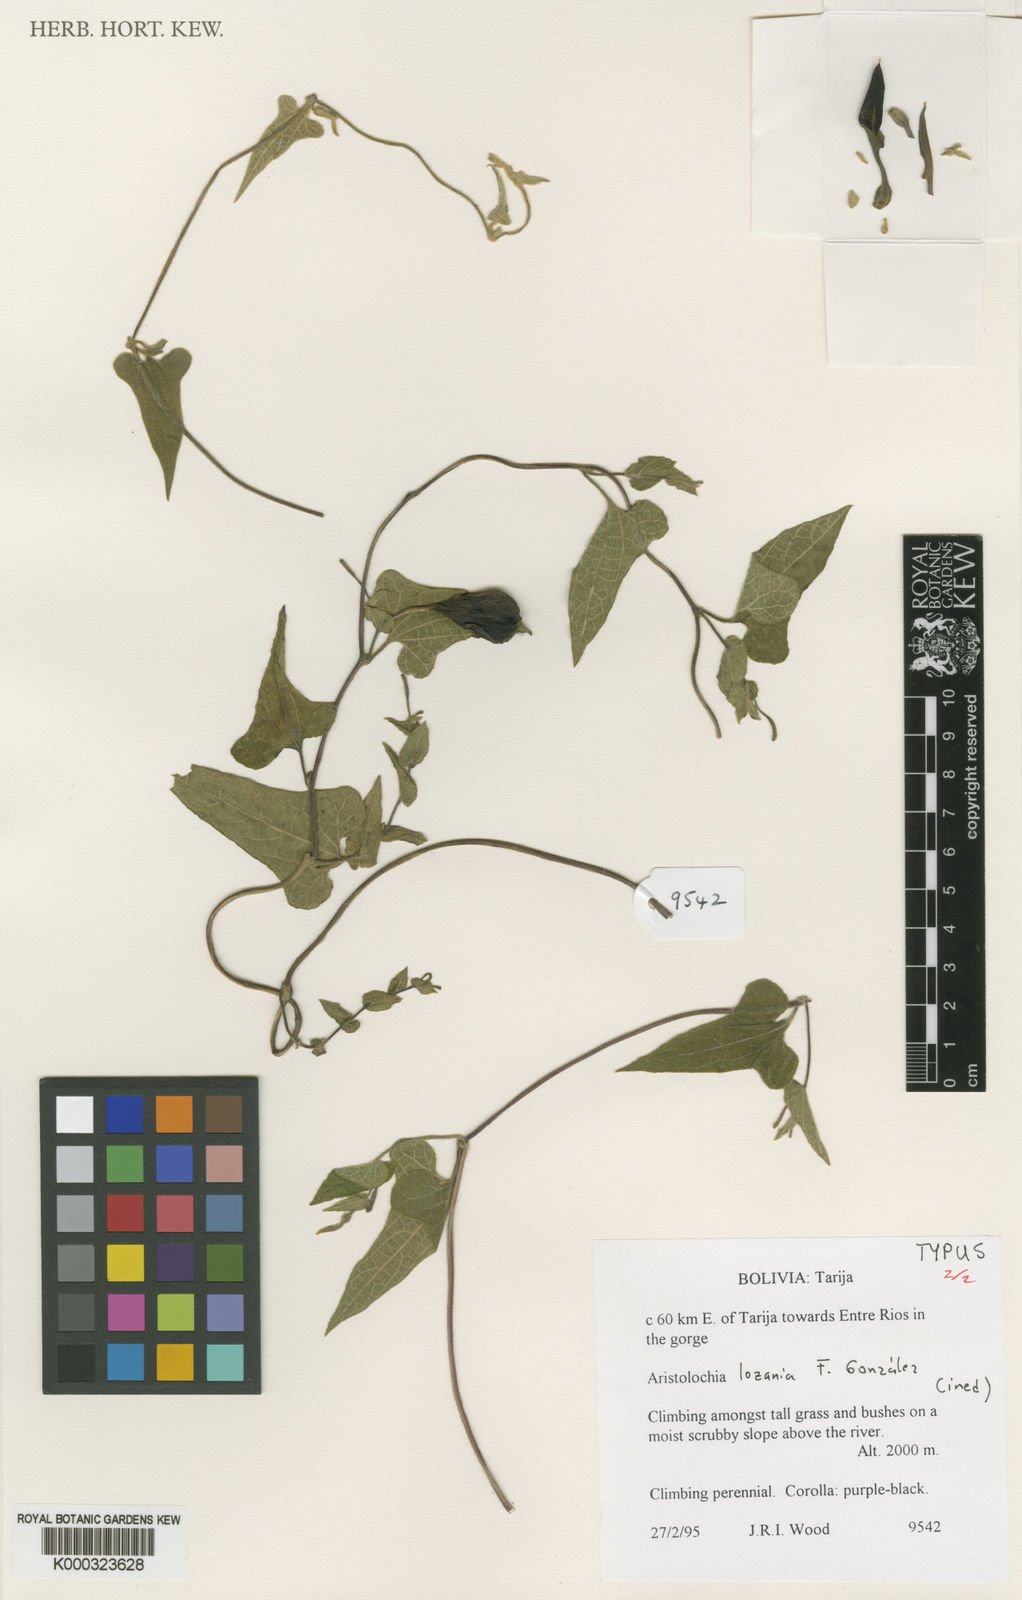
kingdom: Plantae
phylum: Tracheophyta
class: Magnoliopsida
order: Piperales
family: Aristolochiaceae
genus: Aristolochia
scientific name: Aristolochia
